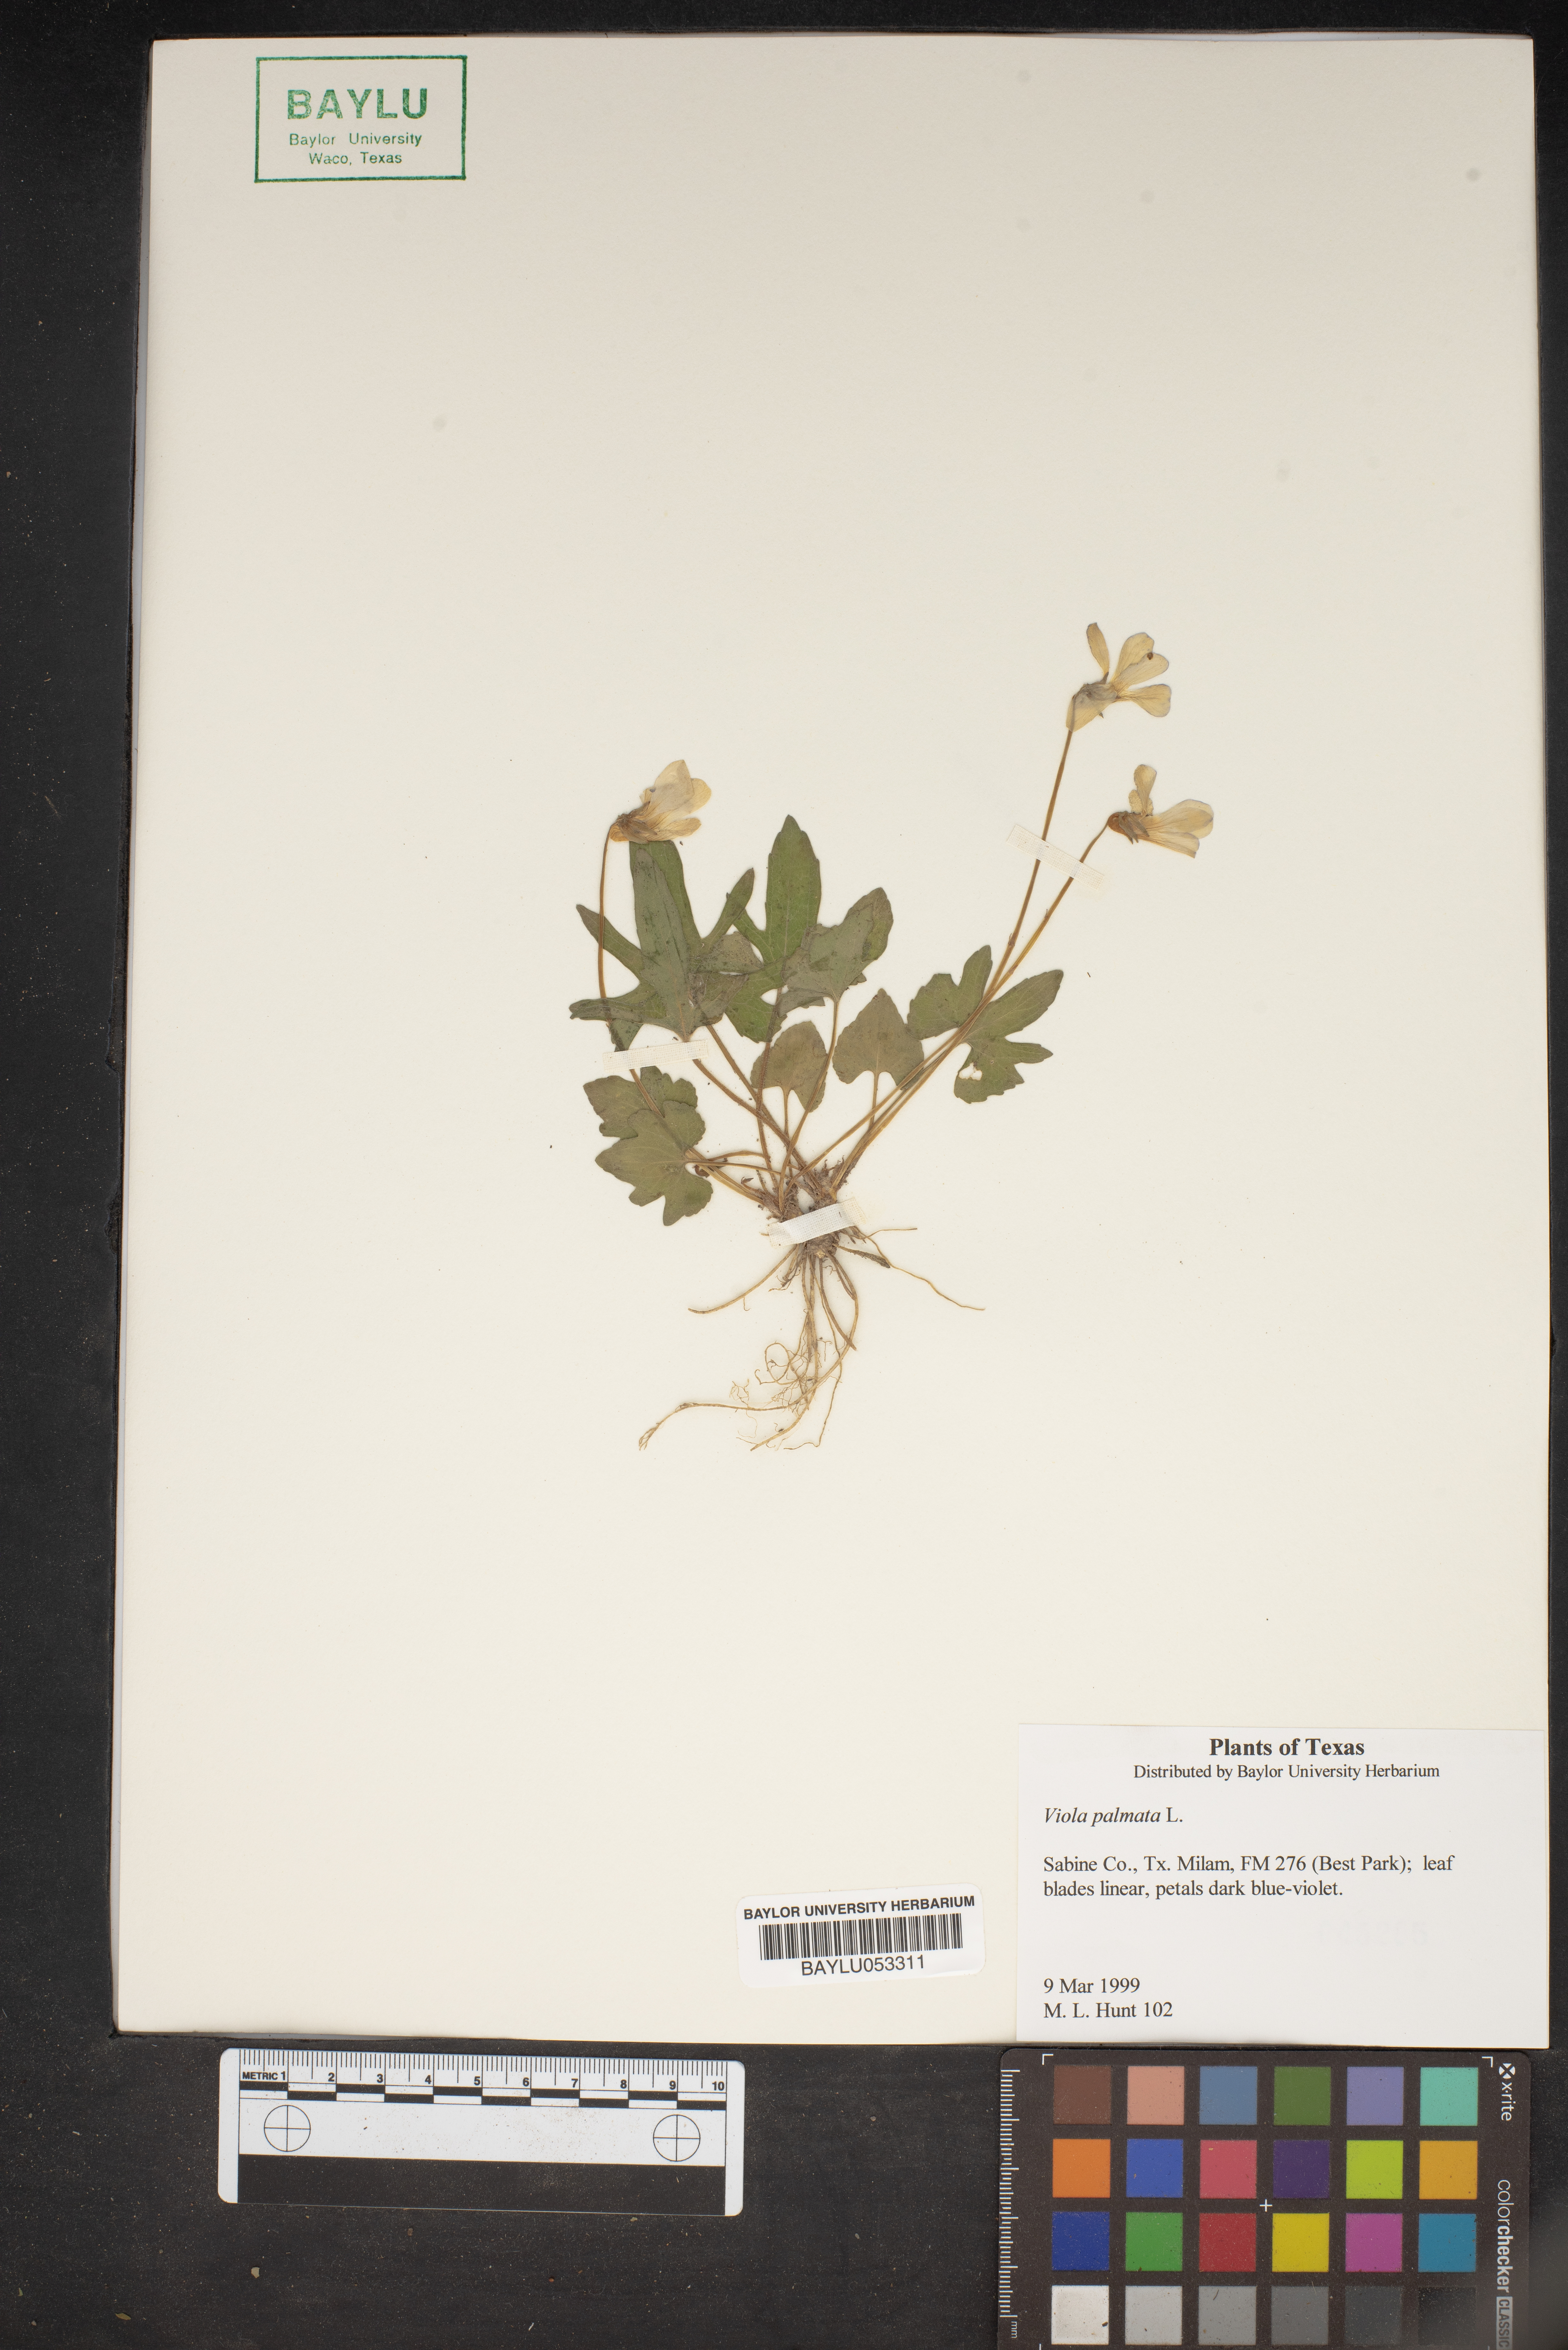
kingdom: Plantae
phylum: Tracheophyta
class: Magnoliopsida
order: Malpighiales
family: Violaceae
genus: Viola
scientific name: Viola palmata
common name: Early blue violet
